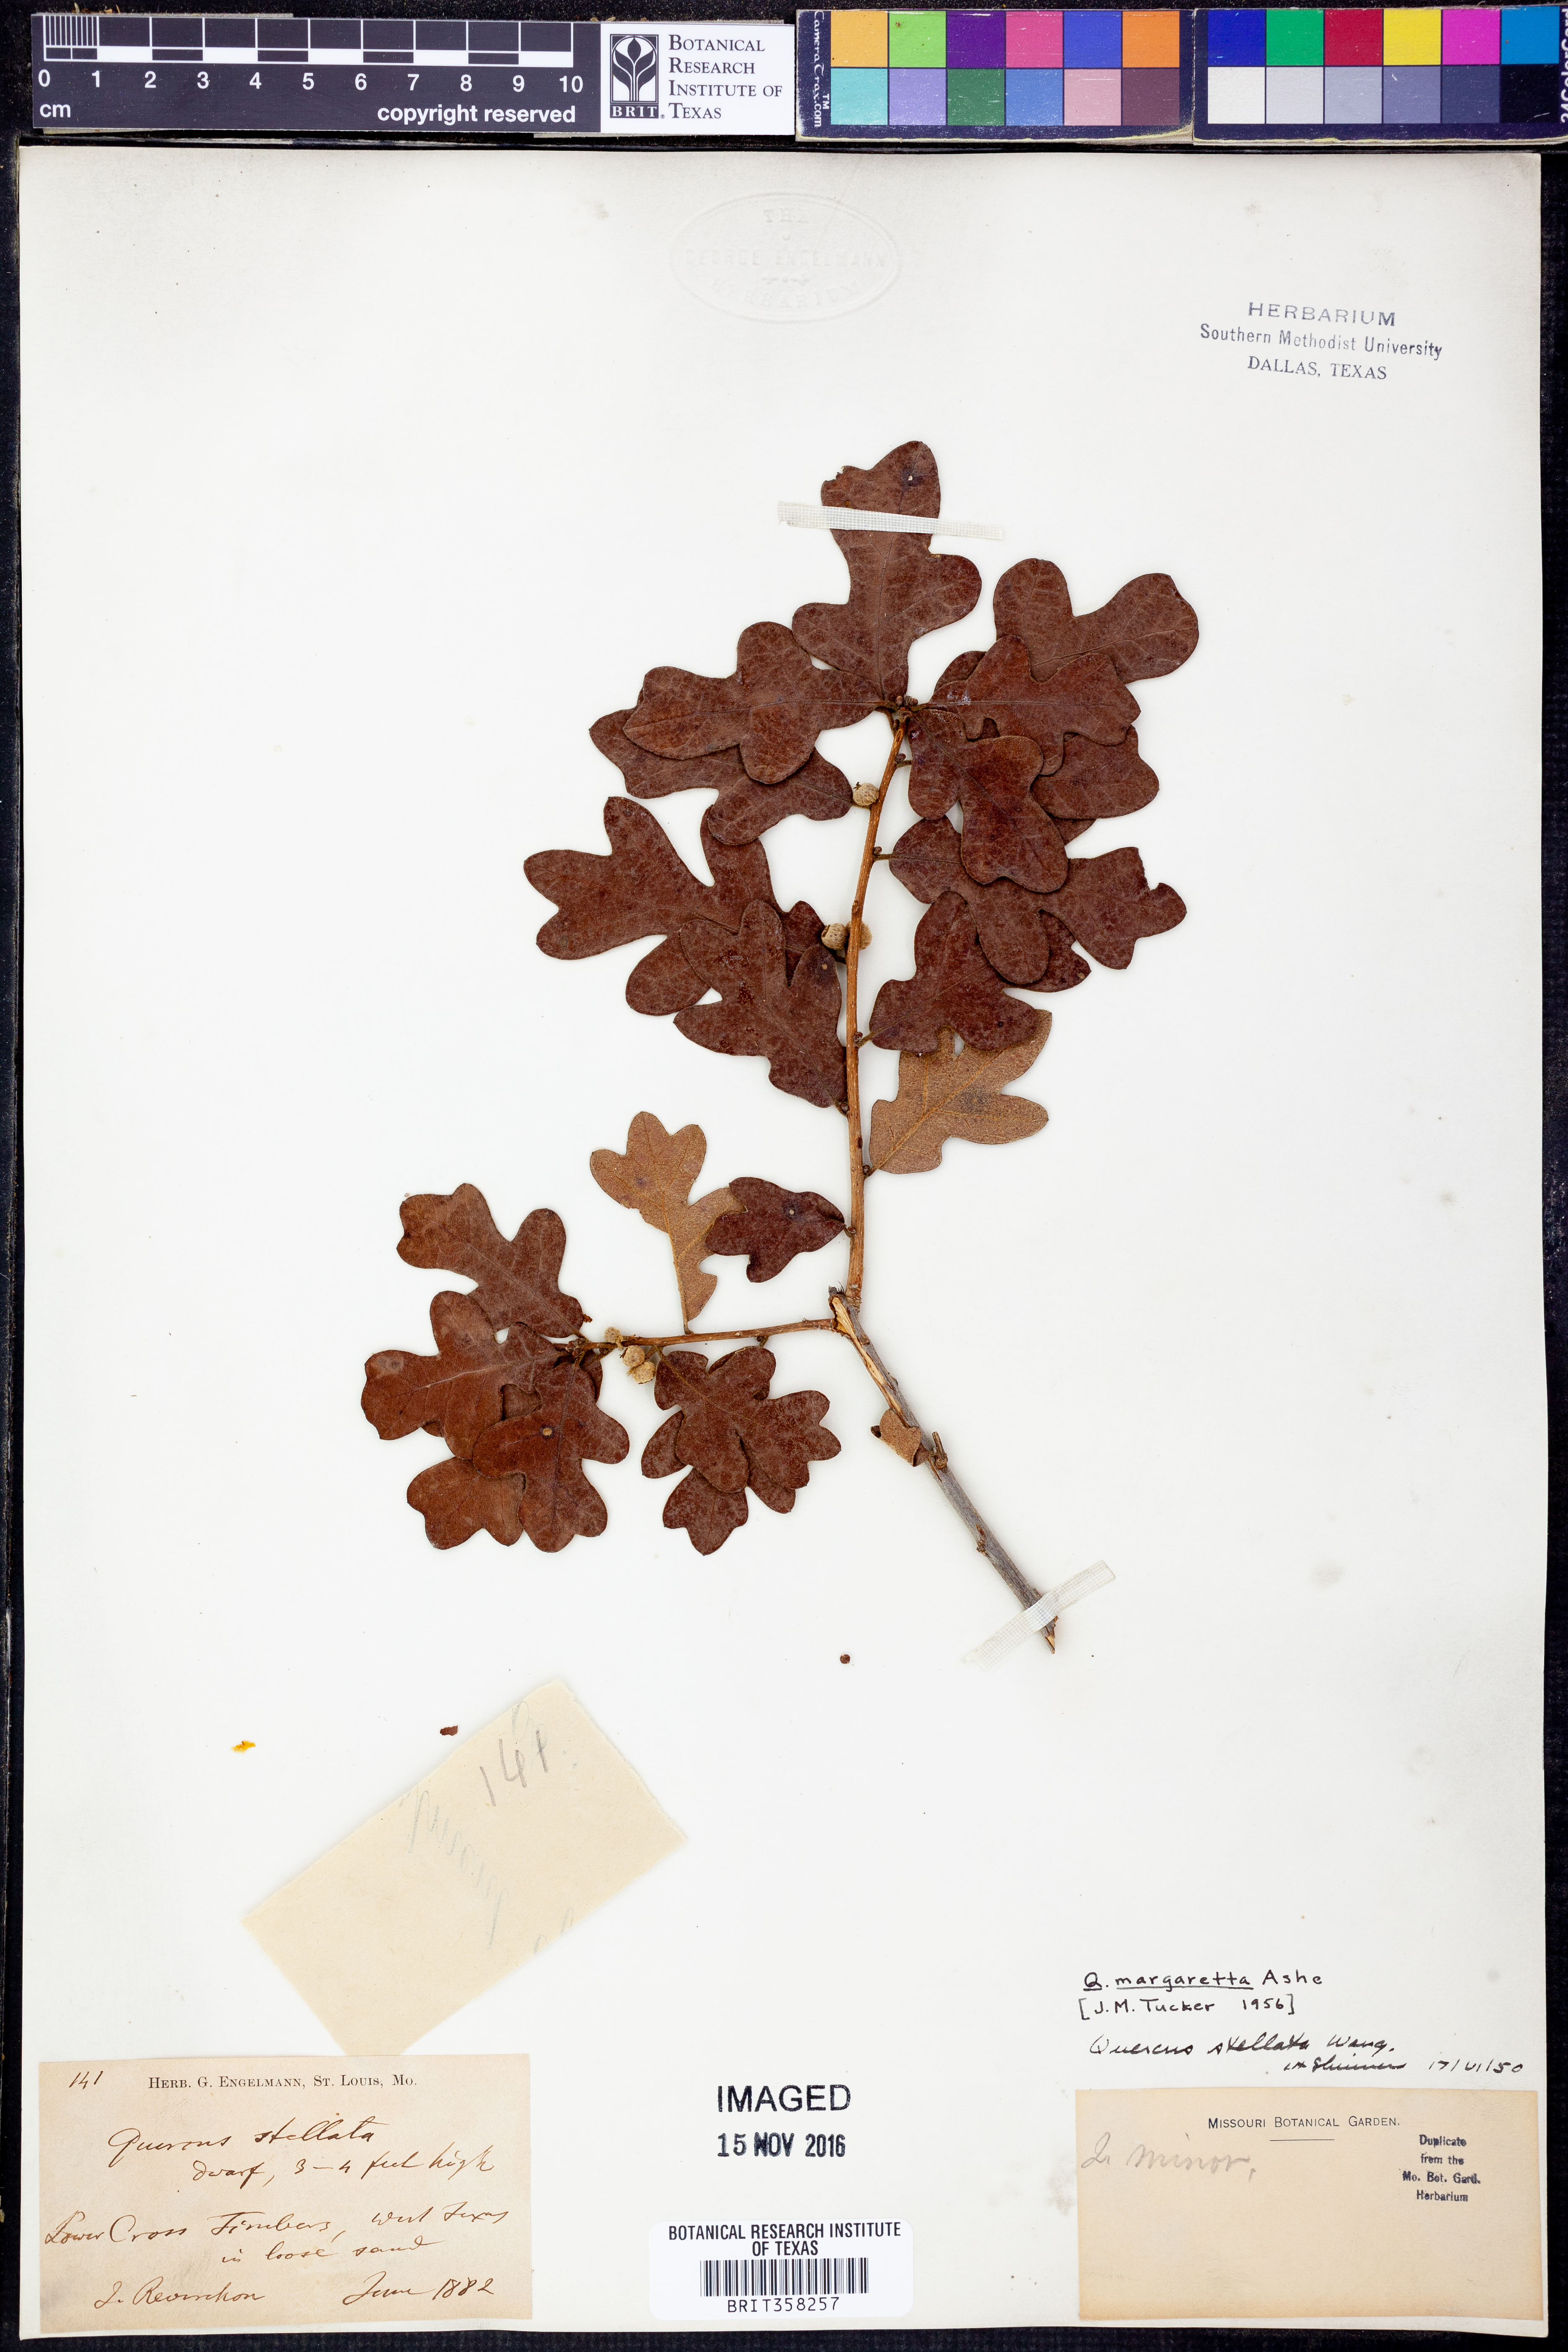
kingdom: Plantae
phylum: Tracheophyta
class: Magnoliopsida
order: Fagales
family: Fagaceae
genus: Quercus
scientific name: Quercus margaretta
